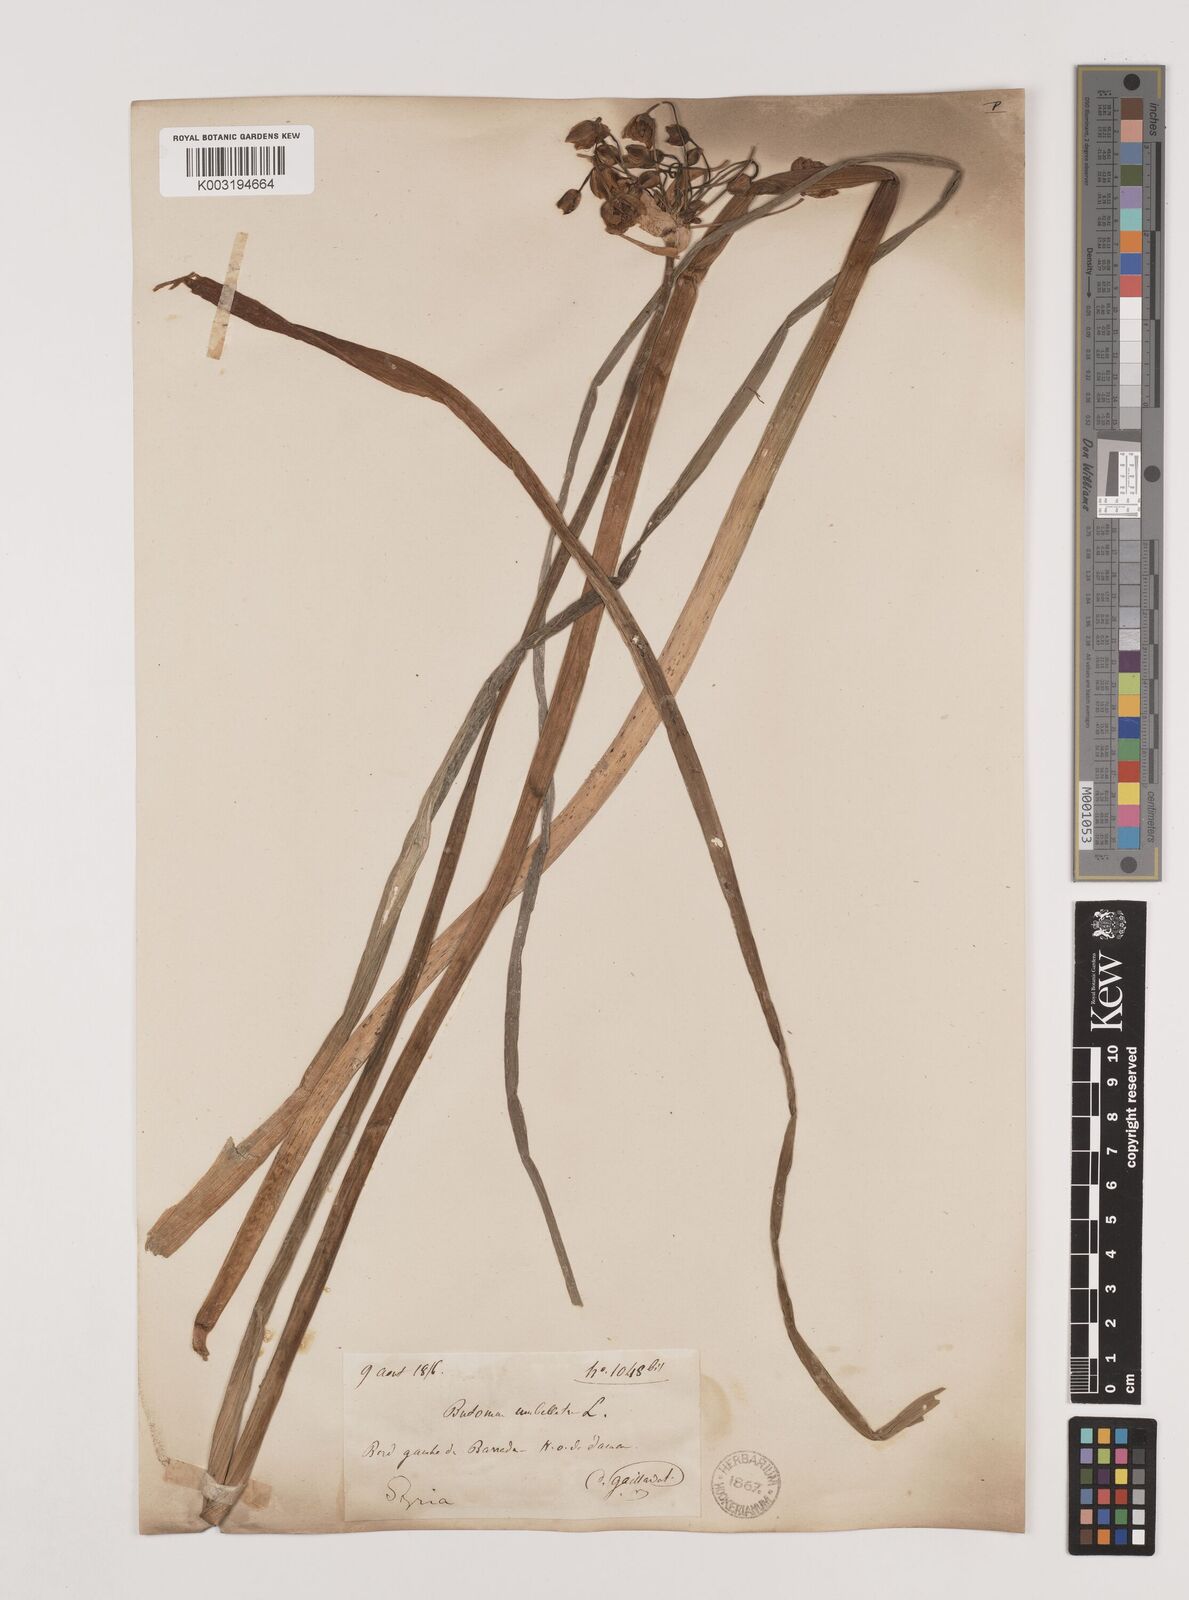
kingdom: Plantae
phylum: Tracheophyta
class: Liliopsida
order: Alismatales
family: Butomaceae
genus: Butomus
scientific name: Butomus
